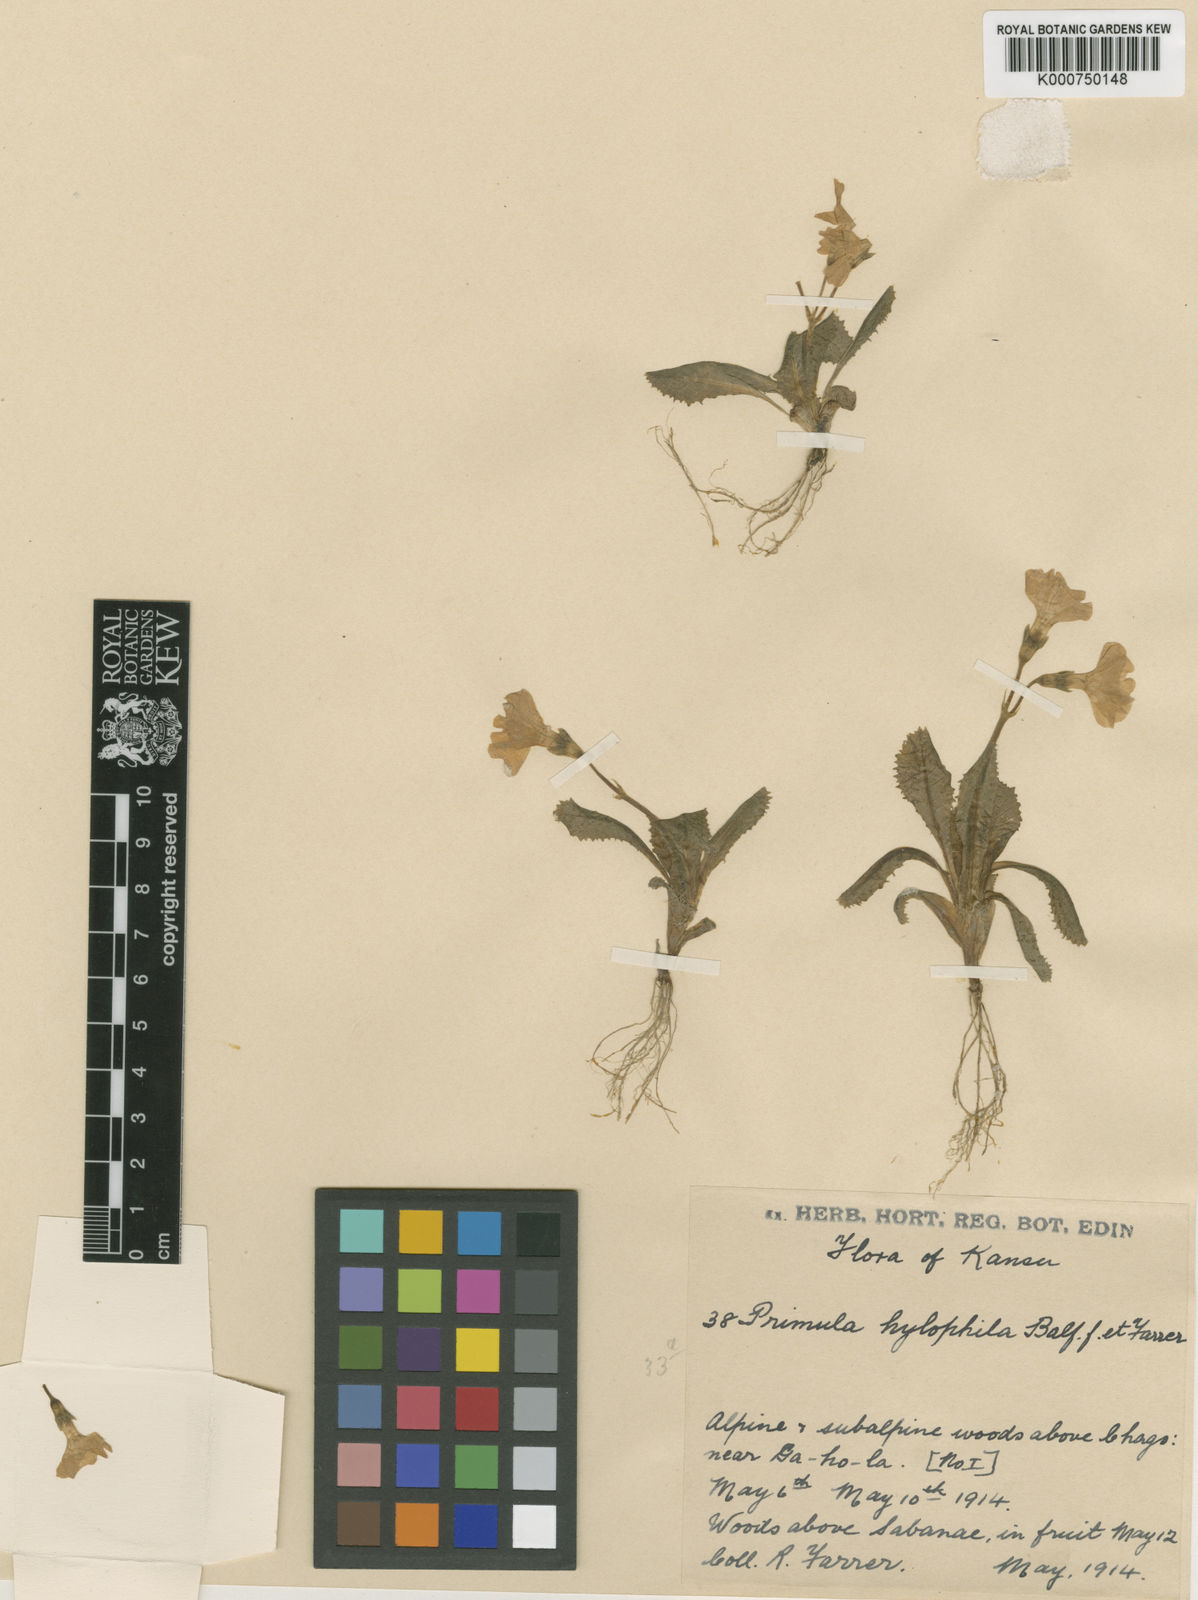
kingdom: Plantae
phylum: Tracheophyta
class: Magnoliopsida
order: Ericales
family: Primulaceae
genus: Primula
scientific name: Primula odontocalyx
